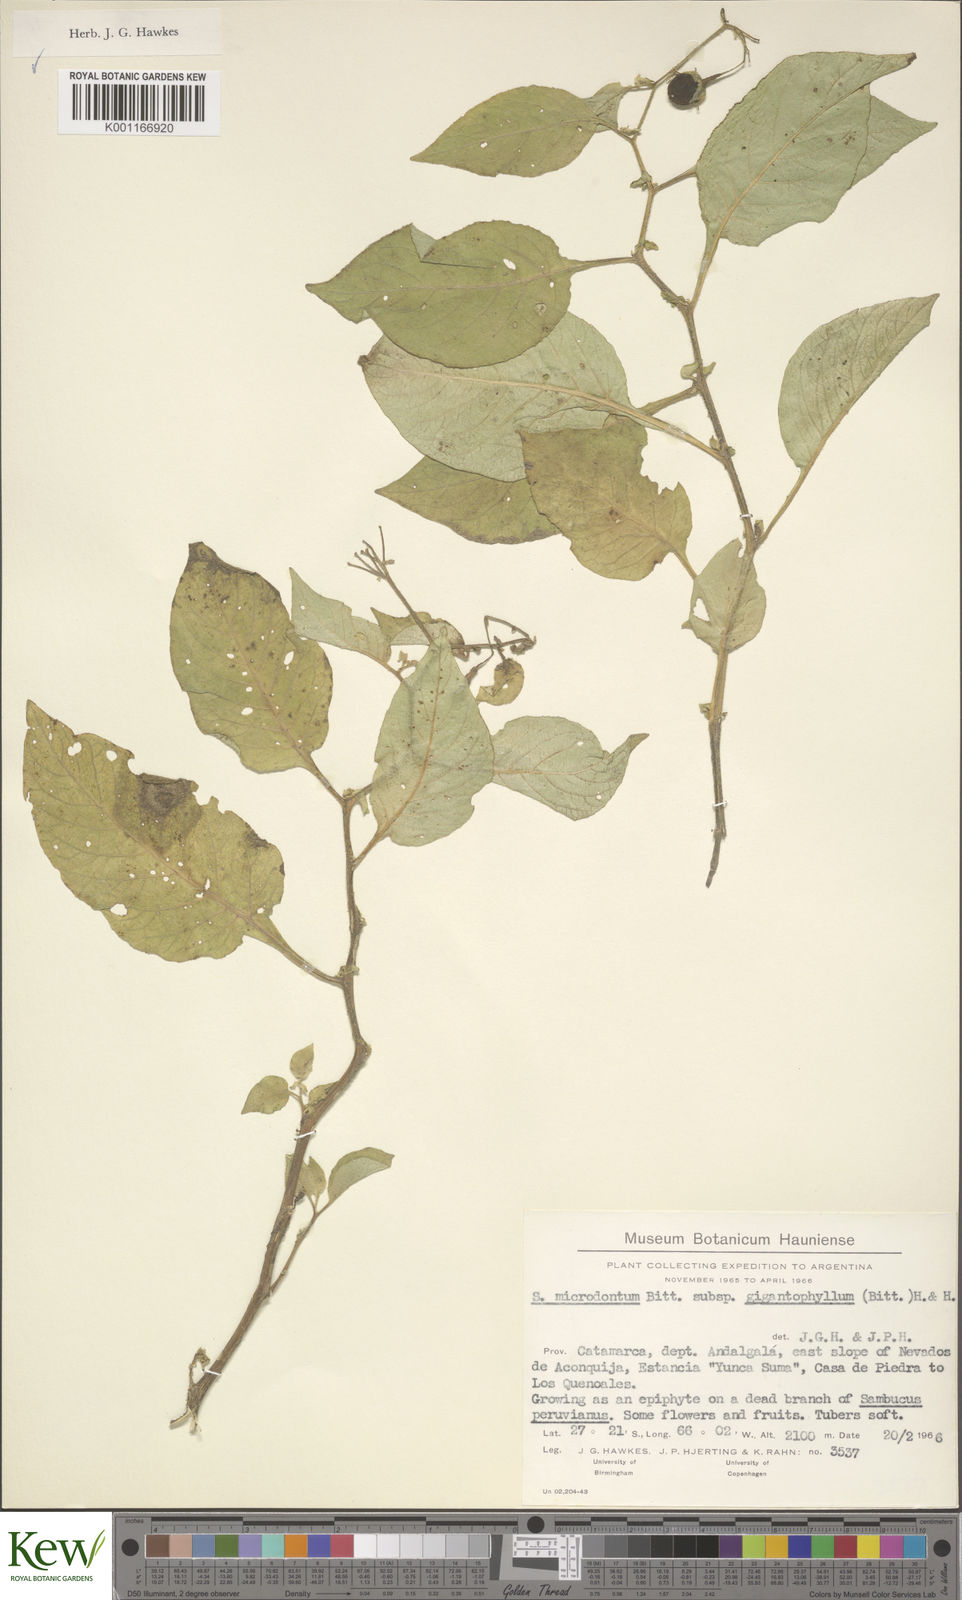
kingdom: Plantae
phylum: Tracheophyta
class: Magnoliopsida
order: Solanales
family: Solanaceae
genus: Solanum
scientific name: Solanum microdontum
